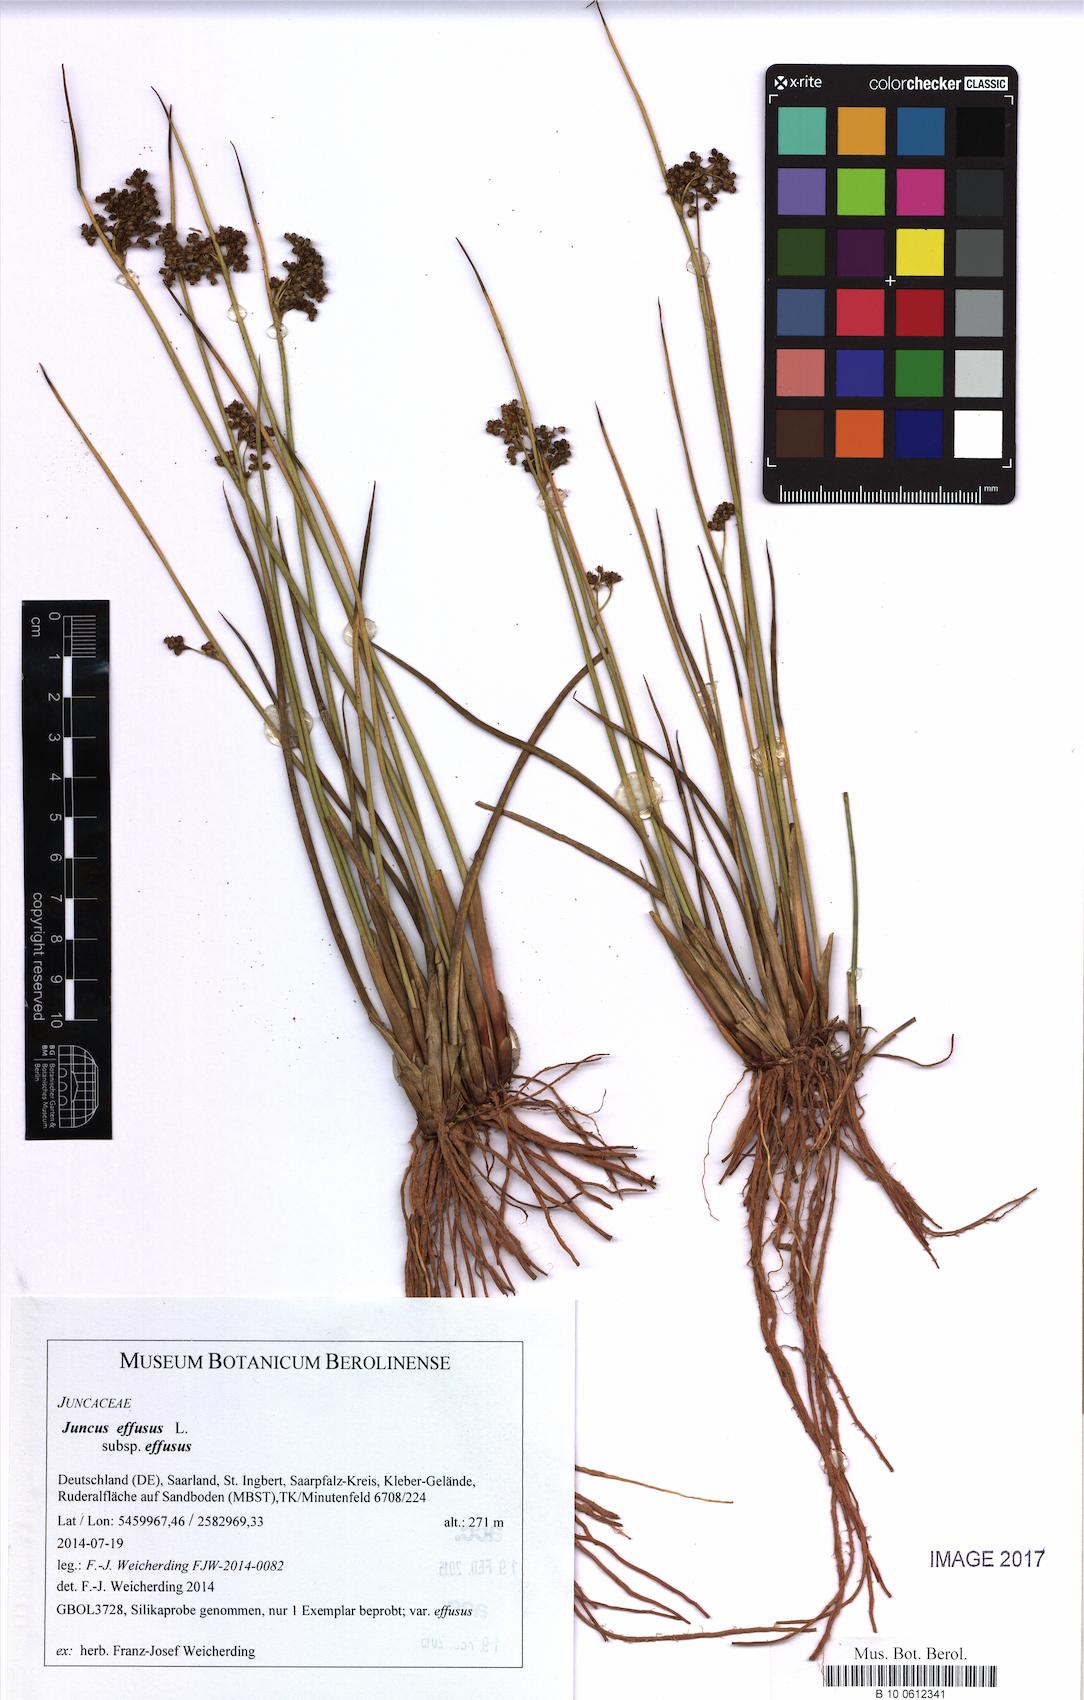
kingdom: Plantae
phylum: Tracheophyta
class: Liliopsida
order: Poales
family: Juncaceae
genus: Juncus
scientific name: Juncus effusus
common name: Soft rush
